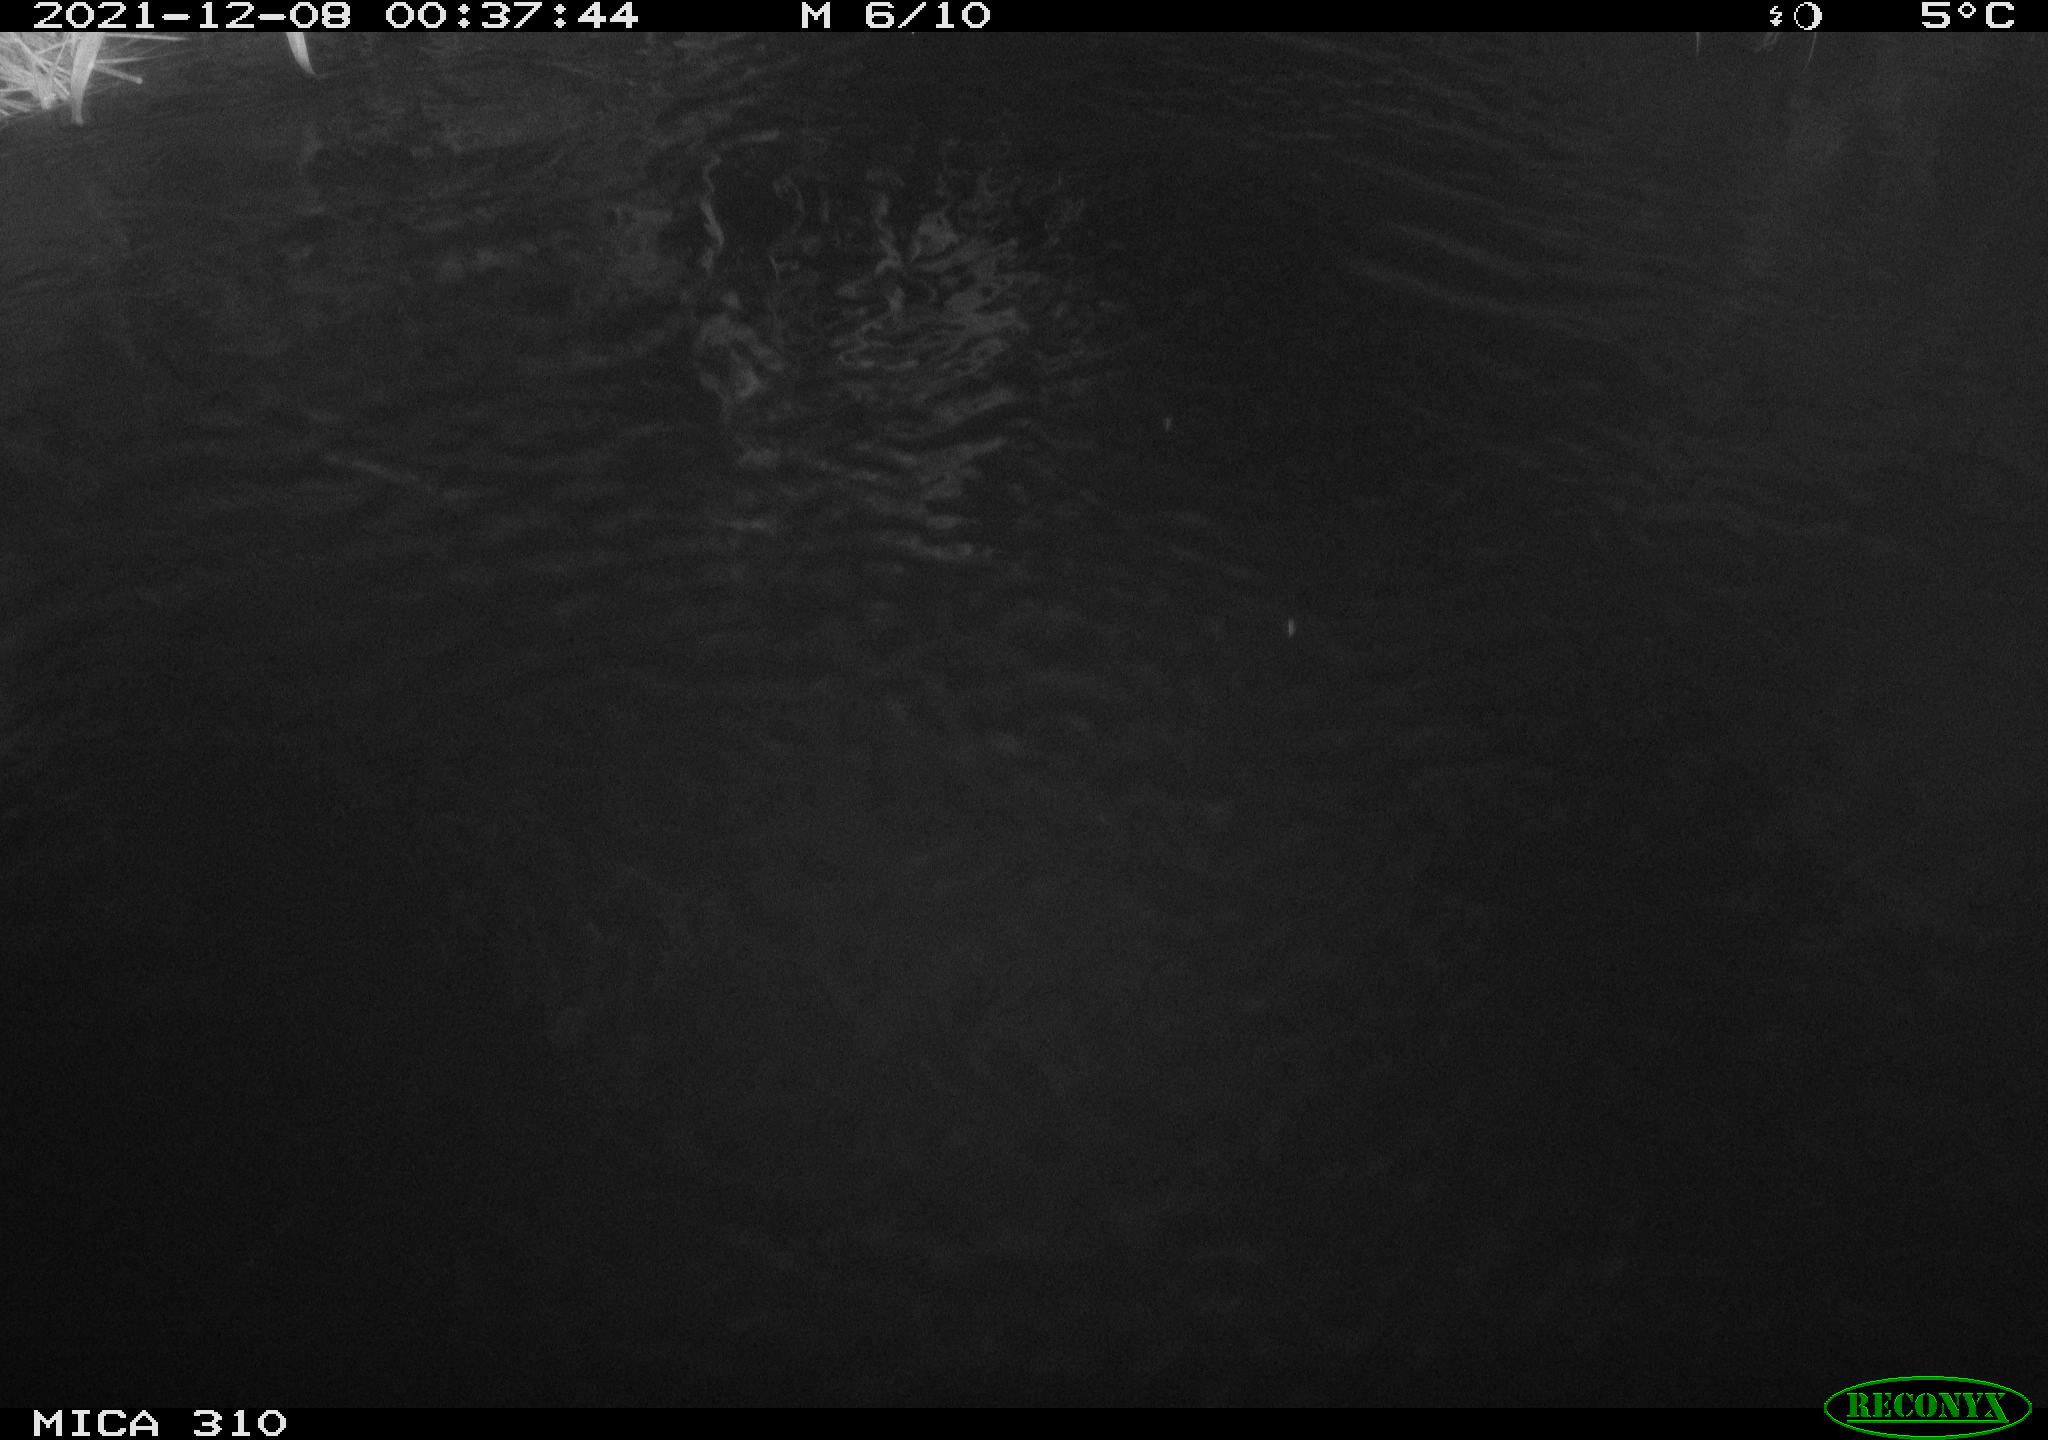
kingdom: Animalia
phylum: Chordata
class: Mammalia
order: Rodentia
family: Muridae
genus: Rattus
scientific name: Rattus norvegicus
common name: Brown rat
